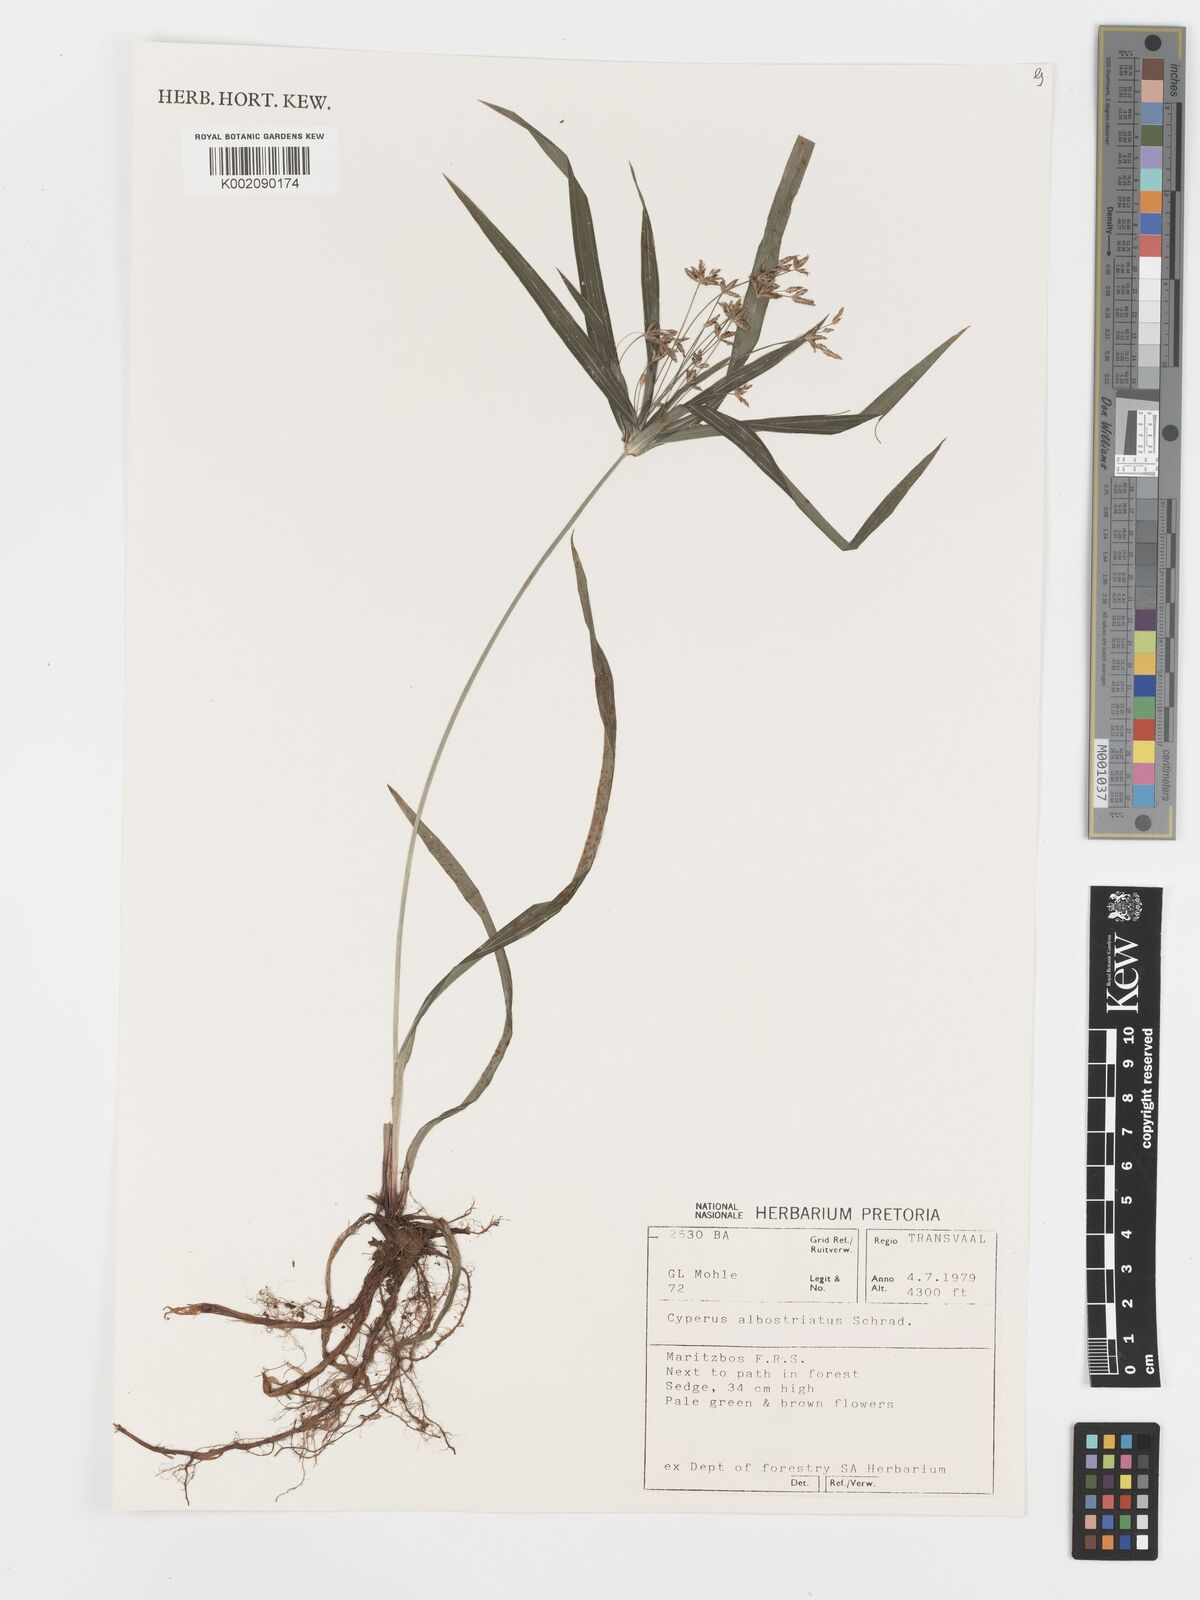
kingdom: Plantae
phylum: Tracheophyta
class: Liliopsida
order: Poales
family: Cyperaceae
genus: Cyperus
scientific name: Cyperus albostriatus
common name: Dwarf umbrella-grass
